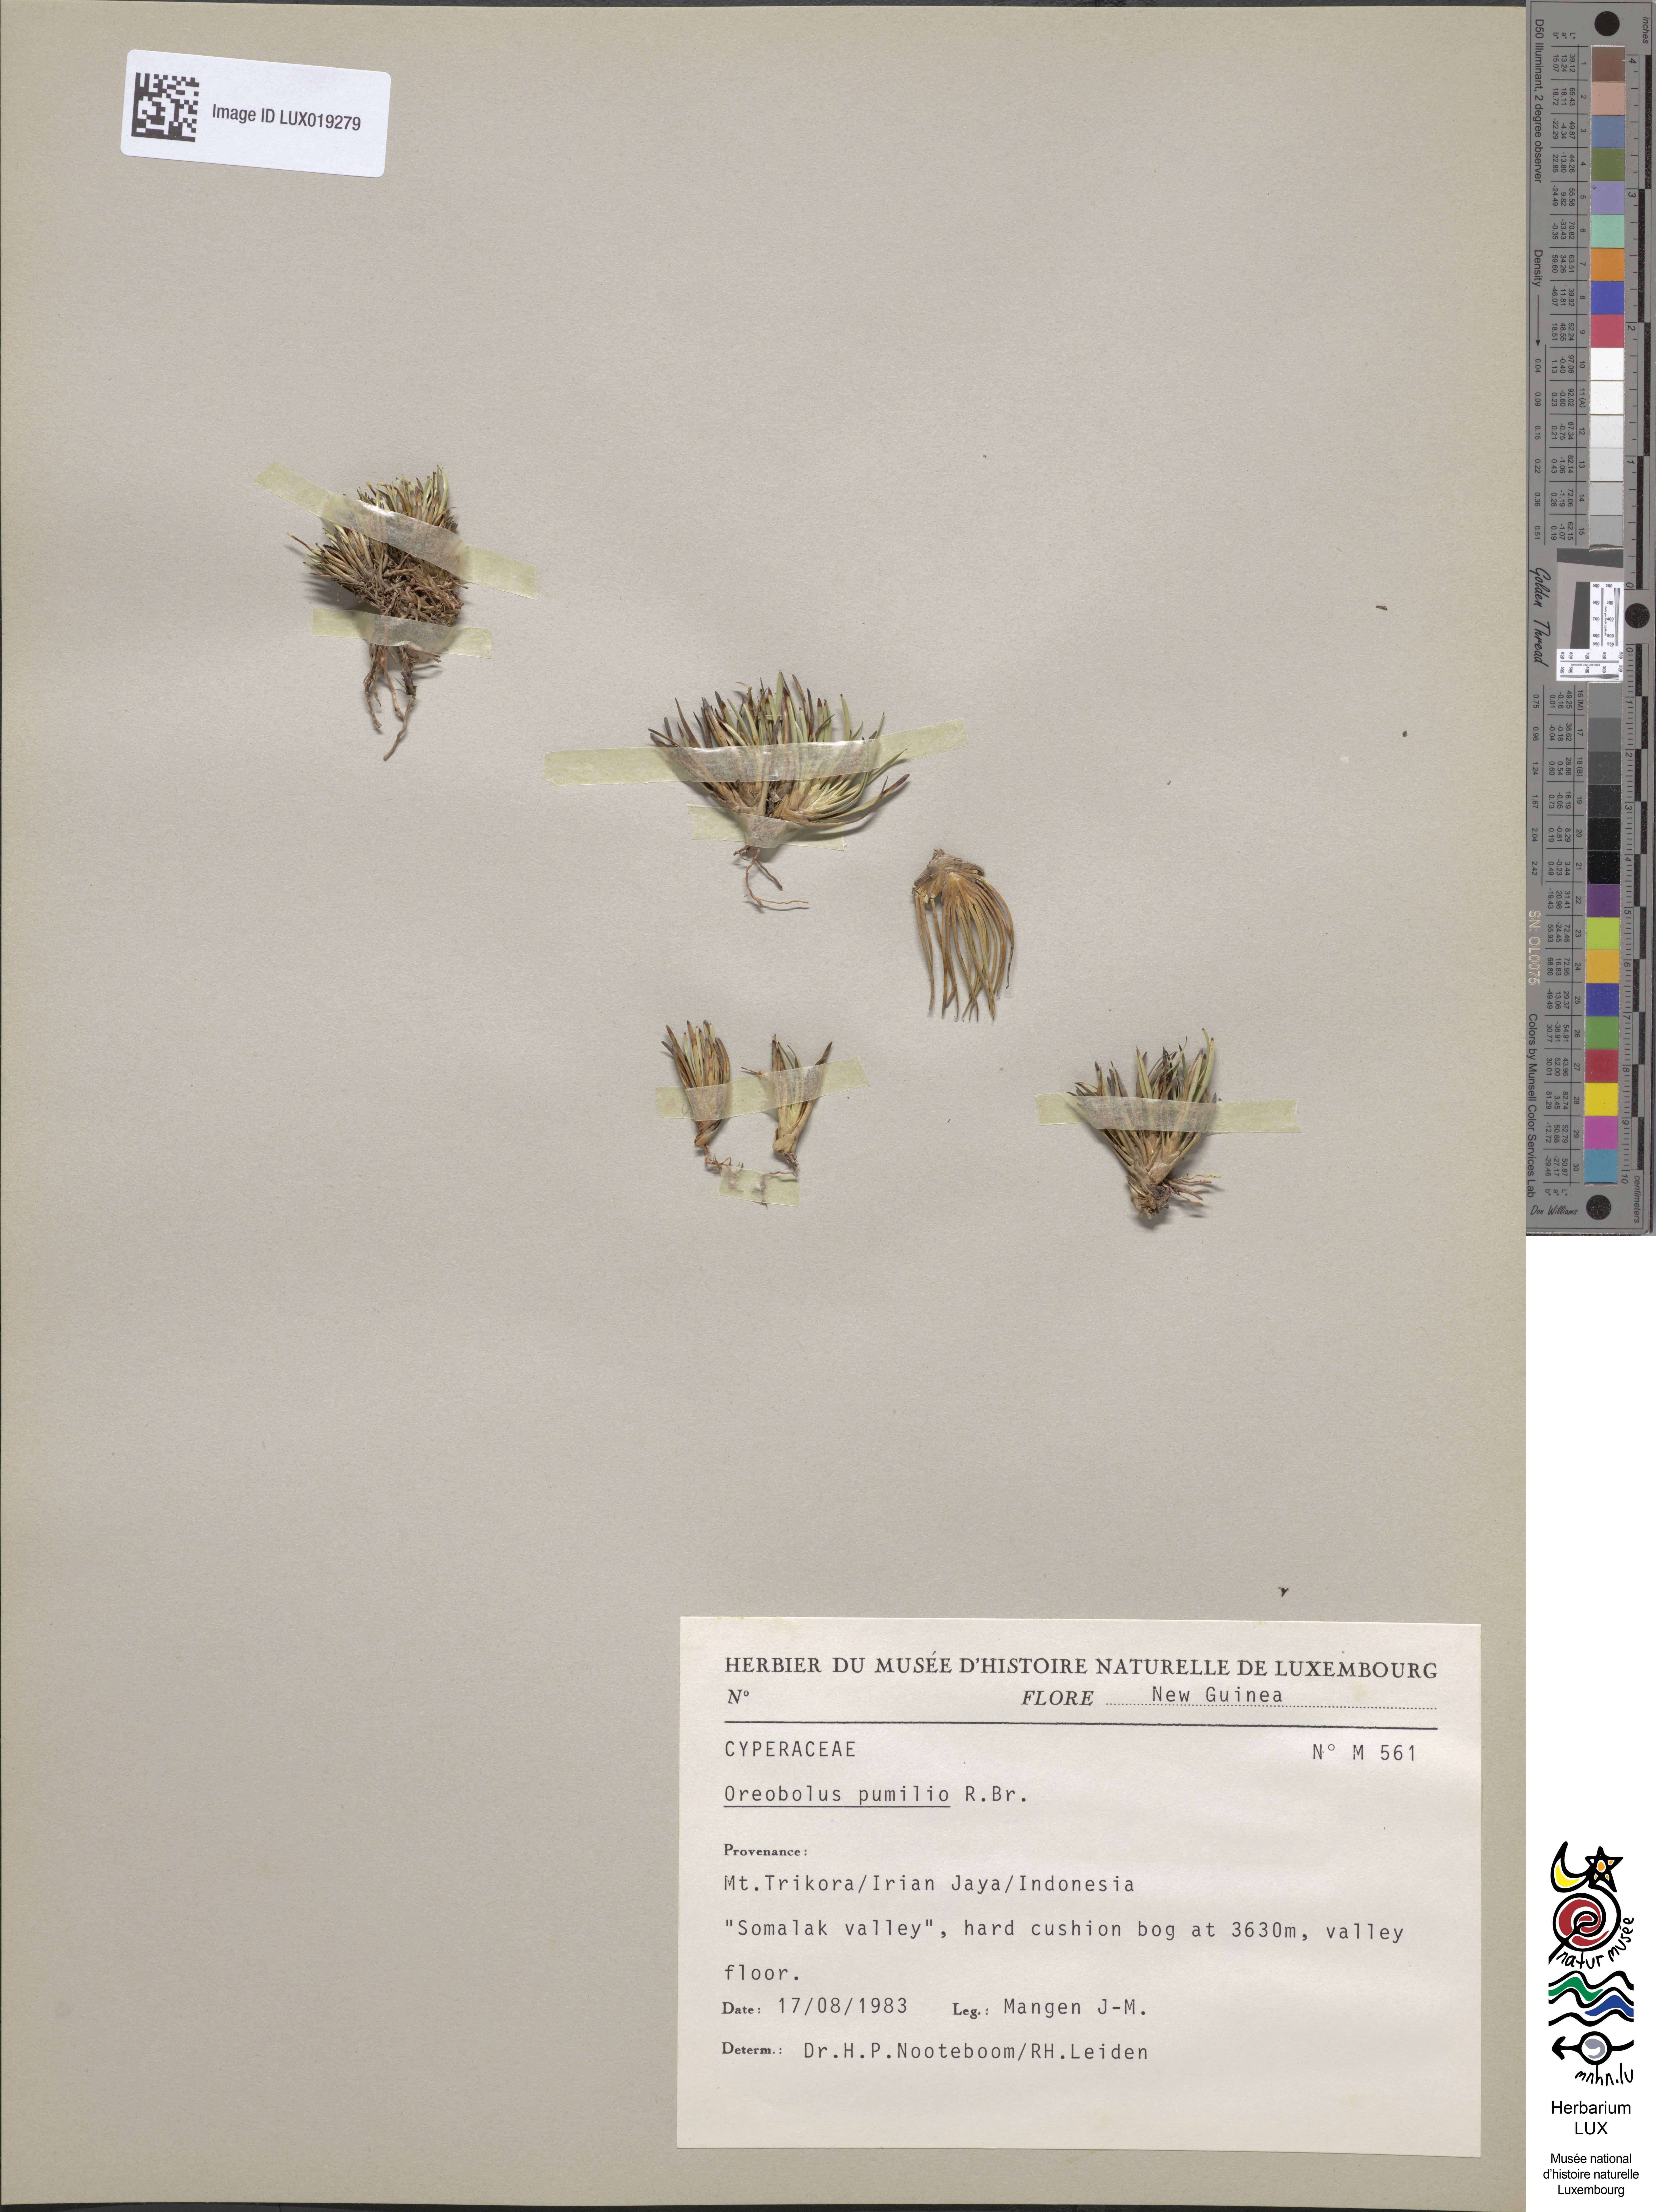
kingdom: Plantae
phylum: Tracheophyta
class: Liliopsida
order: Poales
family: Cyperaceae
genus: Oreobolus
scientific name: Oreobolus pumilio
